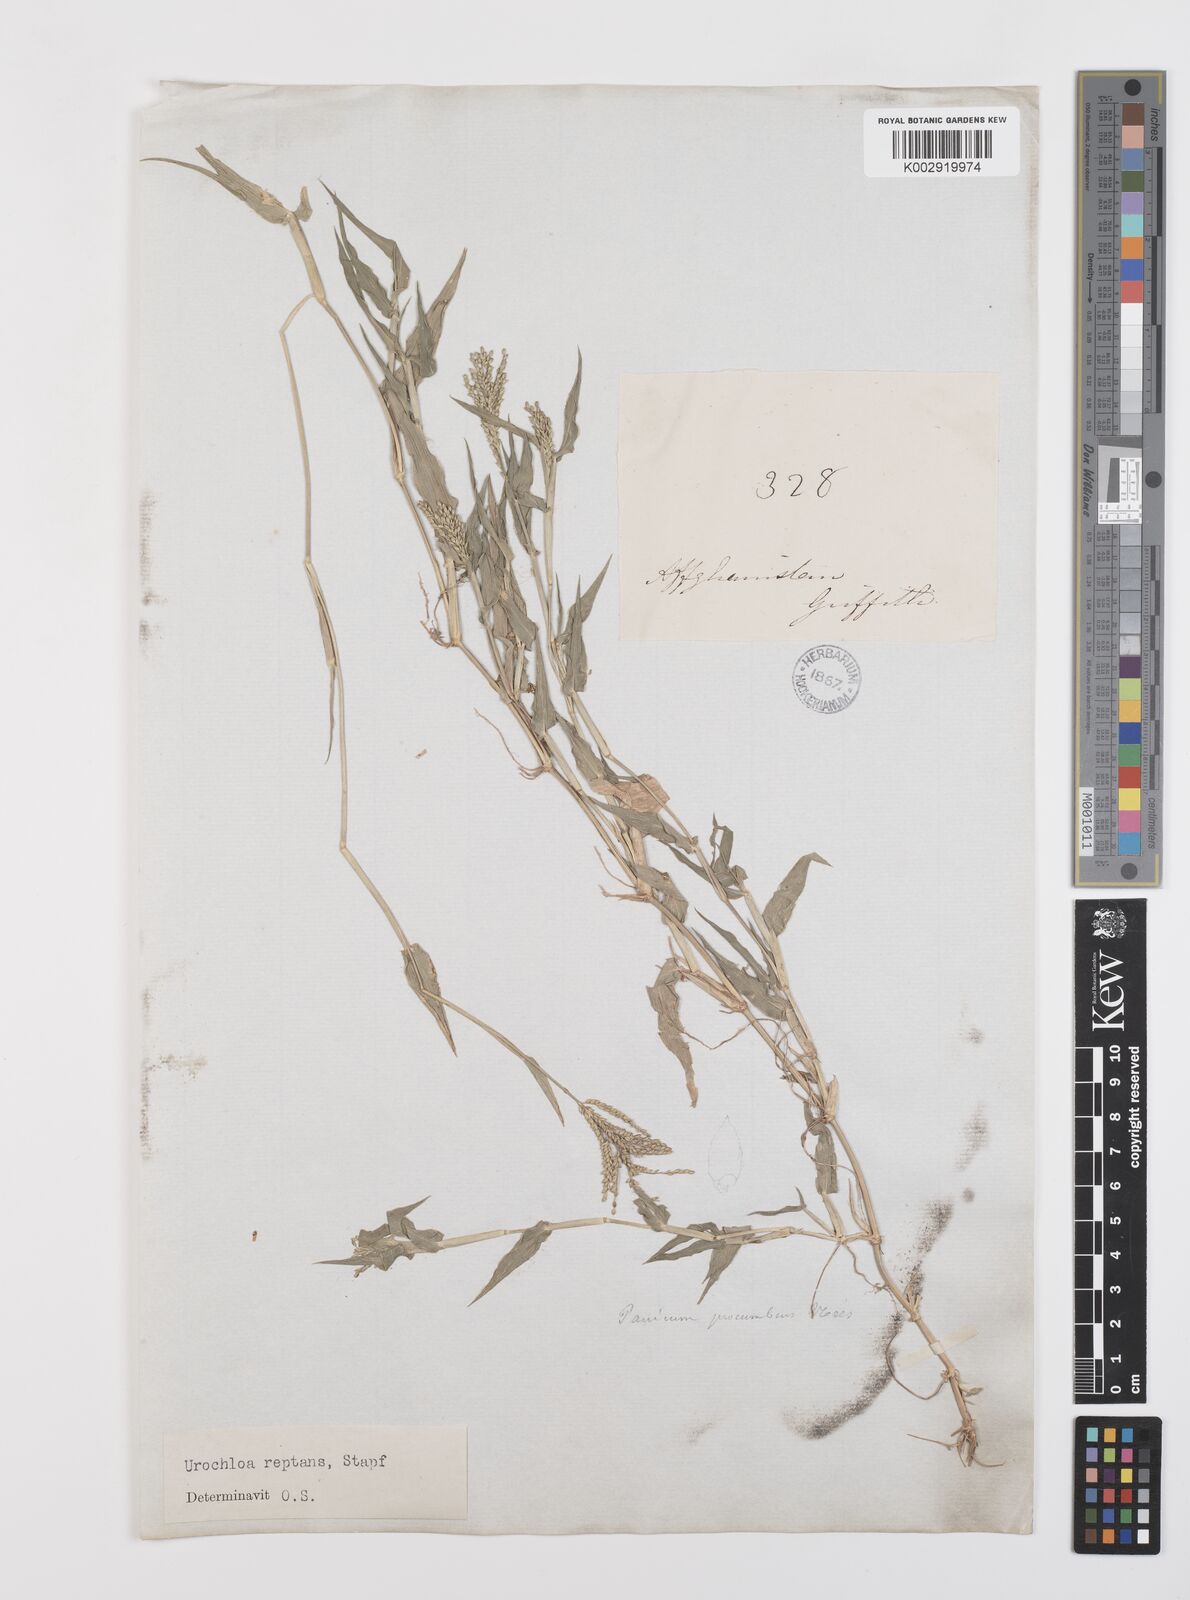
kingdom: Plantae
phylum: Tracheophyta
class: Liliopsida
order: Poales
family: Poaceae
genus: Urochloa
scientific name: Urochloa reptans
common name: Sprawling signalgrass
